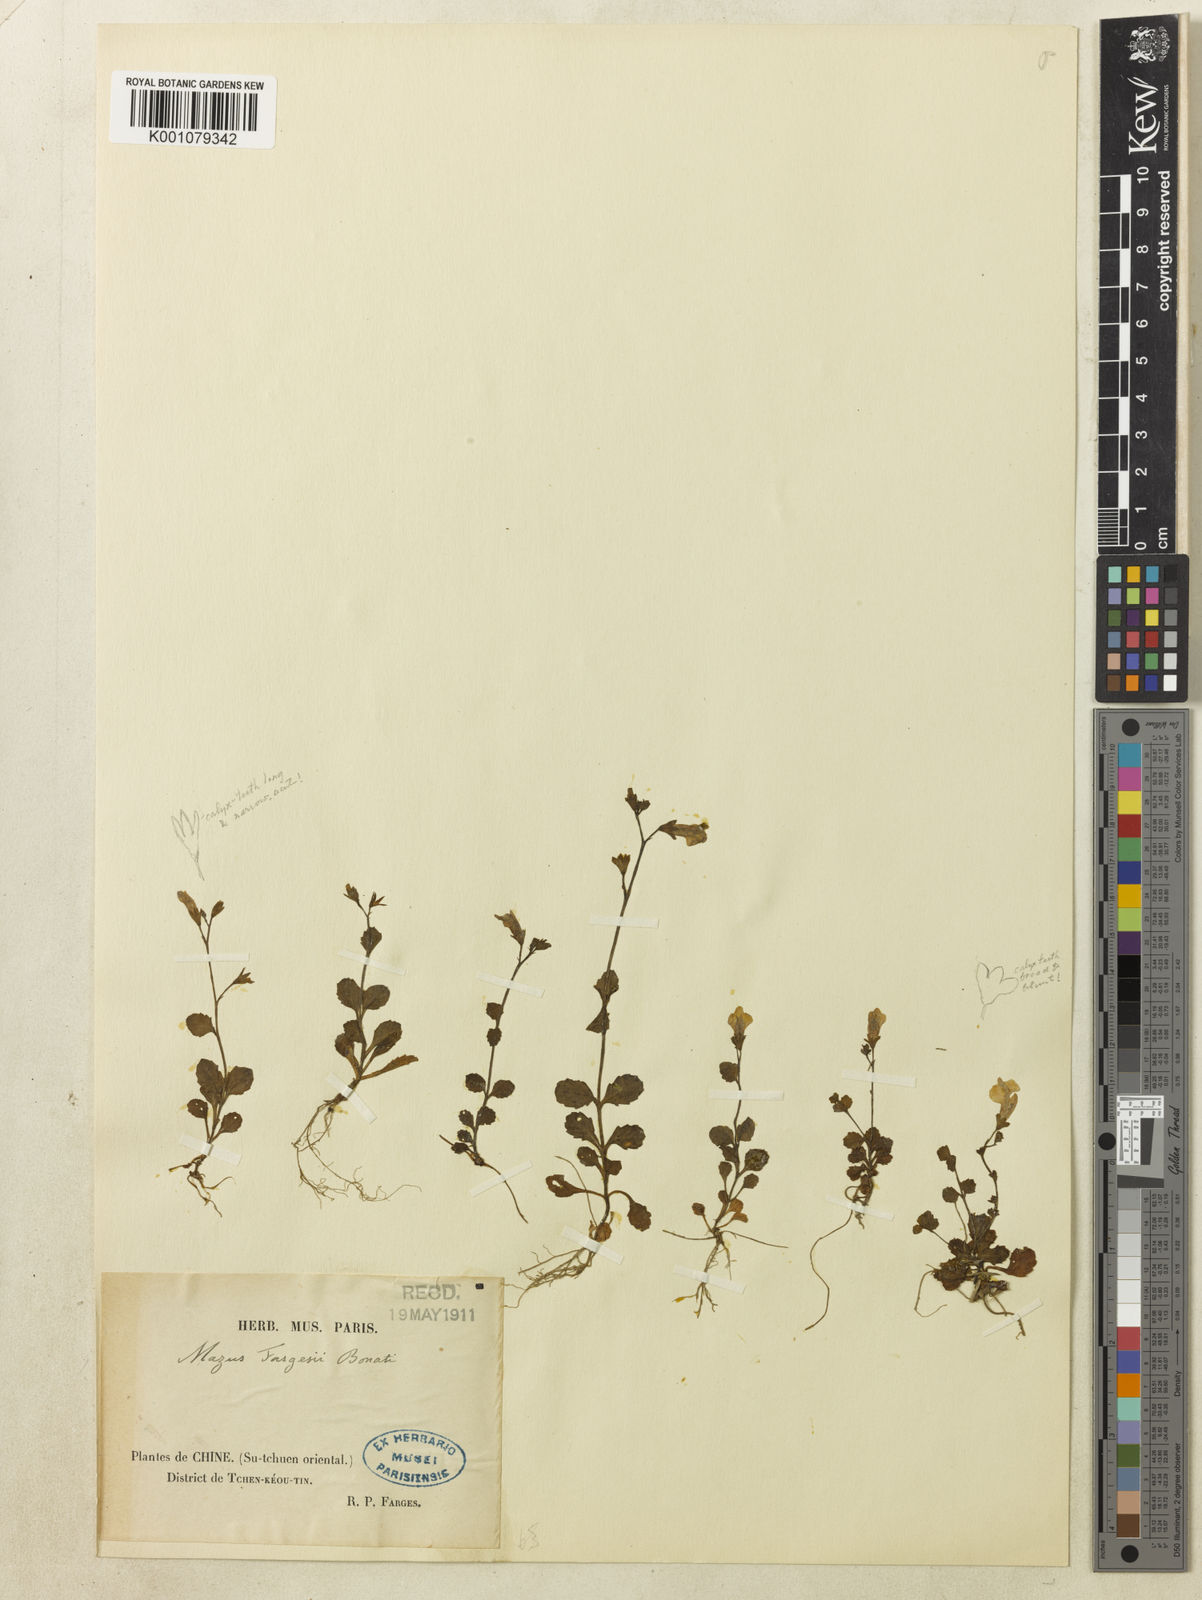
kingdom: Plantae
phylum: Tracheophyta
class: Magnoliopsida
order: Lamiales
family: Mazaceae
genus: Mazus
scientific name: Mazus miquelii
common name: Miquel's mazus
